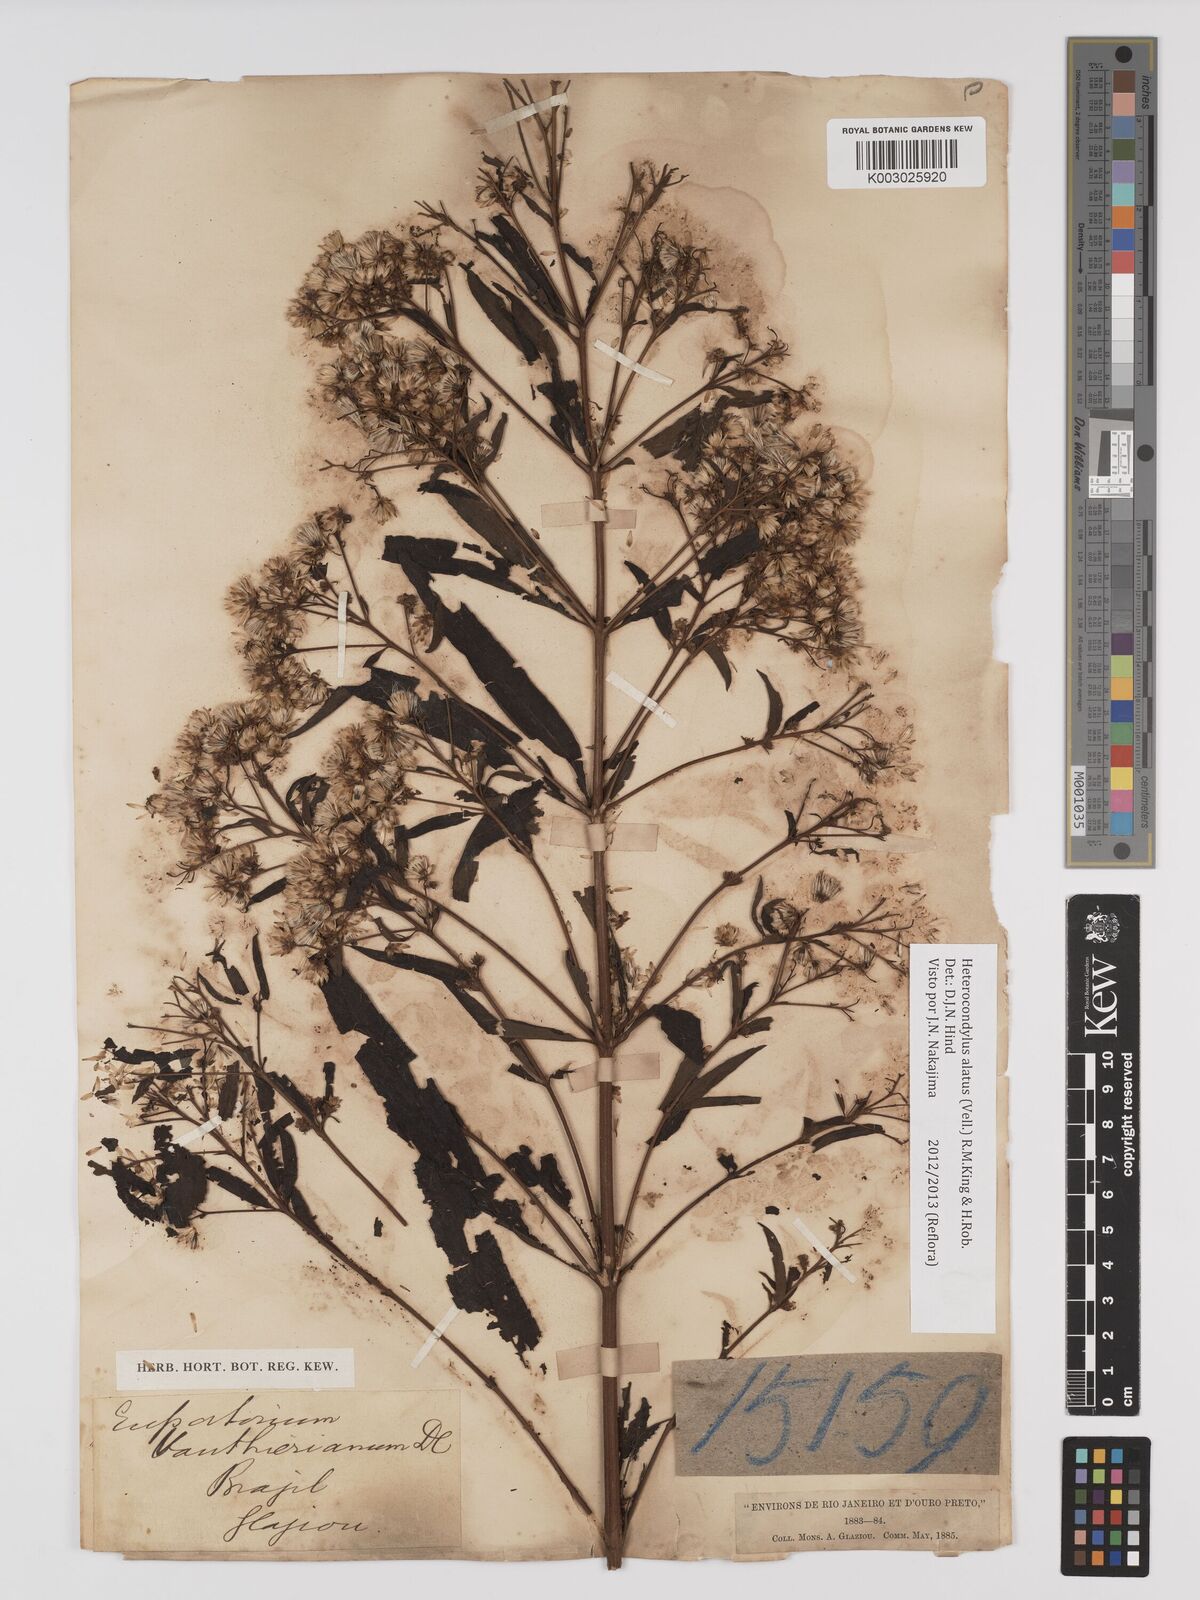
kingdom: Plantae
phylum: Tracheophyta
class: Magnoliopsida
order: Asterales
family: Asteraceae
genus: Heterocondylus
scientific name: Heterocondylus alatus
